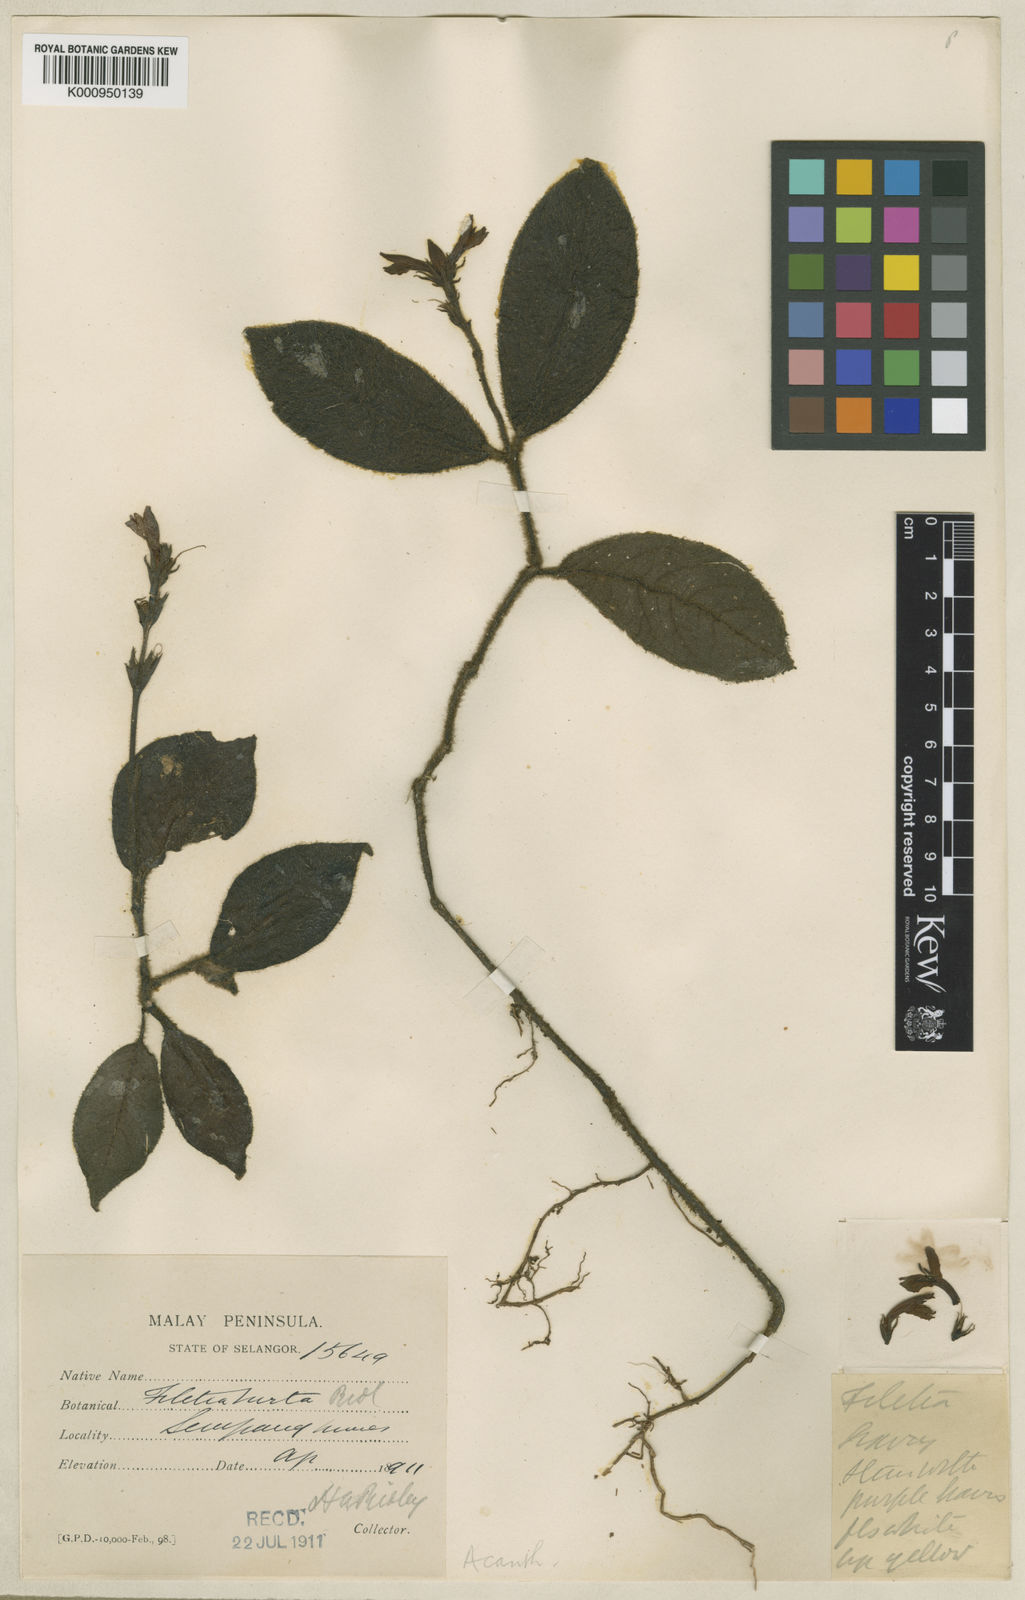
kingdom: Plantae
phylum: Tracheophyta
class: Magnoliopsida
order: Lamiales
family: Acanthaceae
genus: Filetia
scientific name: Filetia hirta
